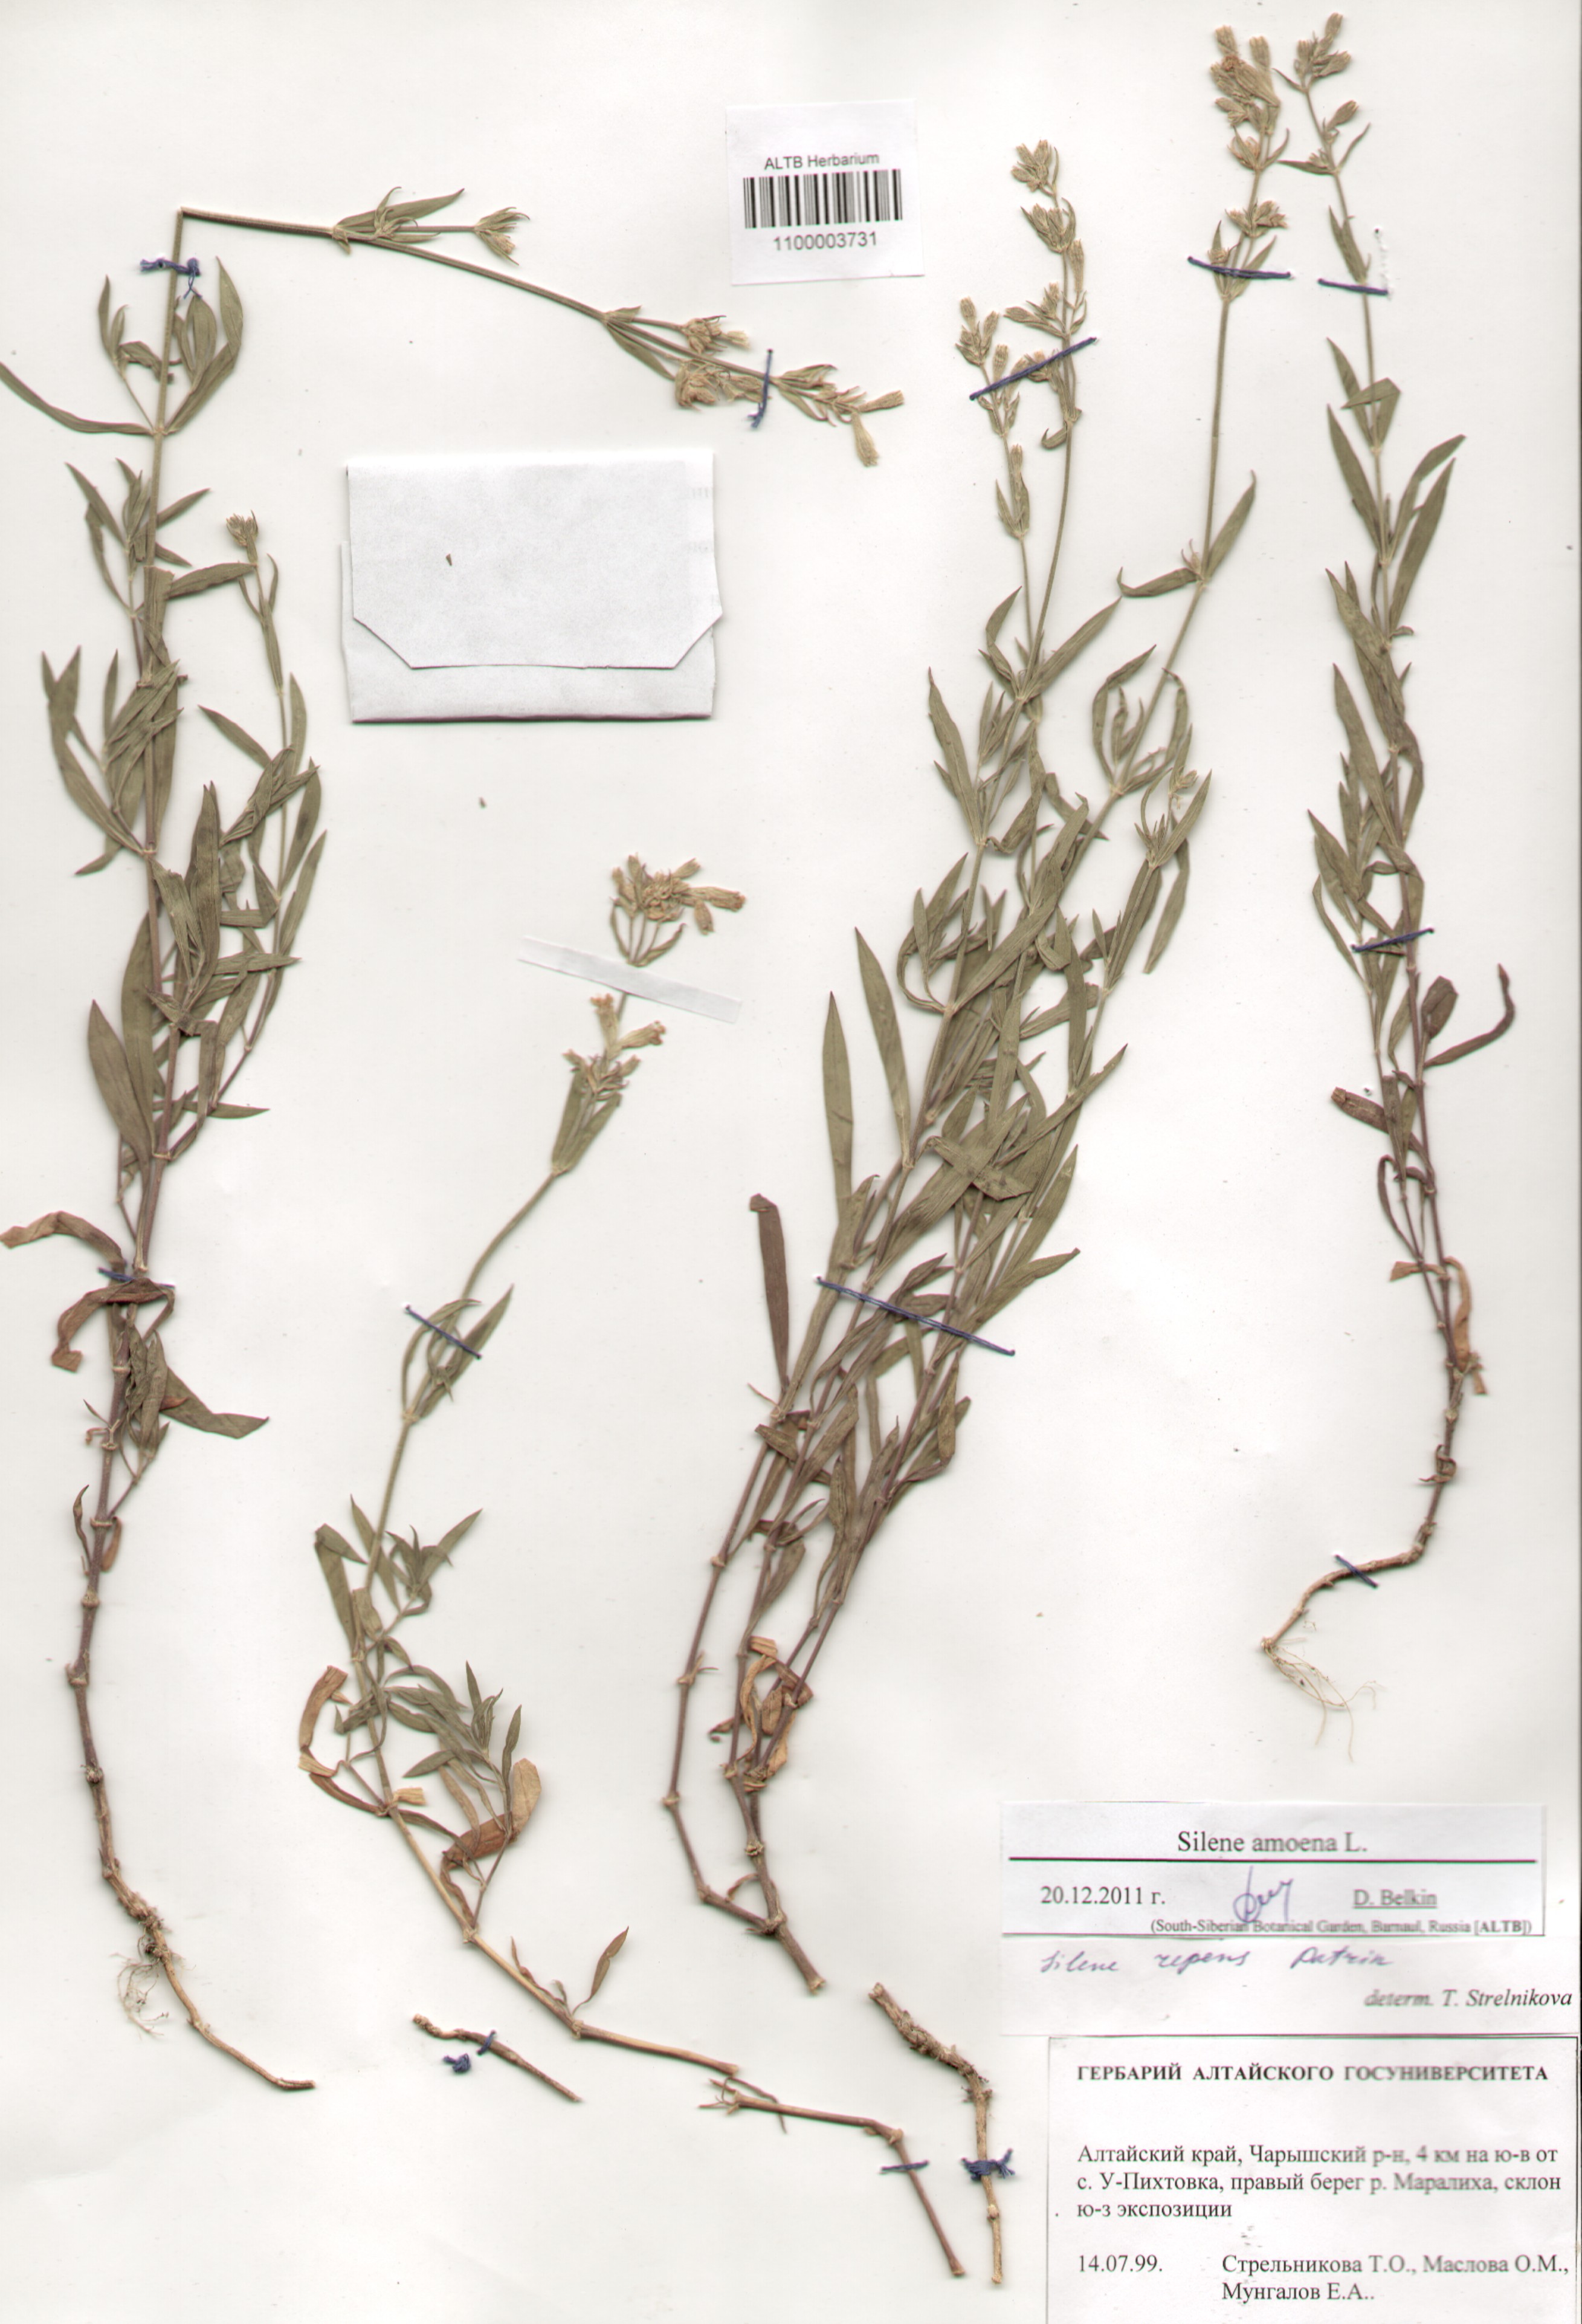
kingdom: Plantae
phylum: Tracheophyta
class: Magnoliopsida
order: Caryophyllales
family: Caryophyllaceae
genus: Silene
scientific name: Silene amoena
